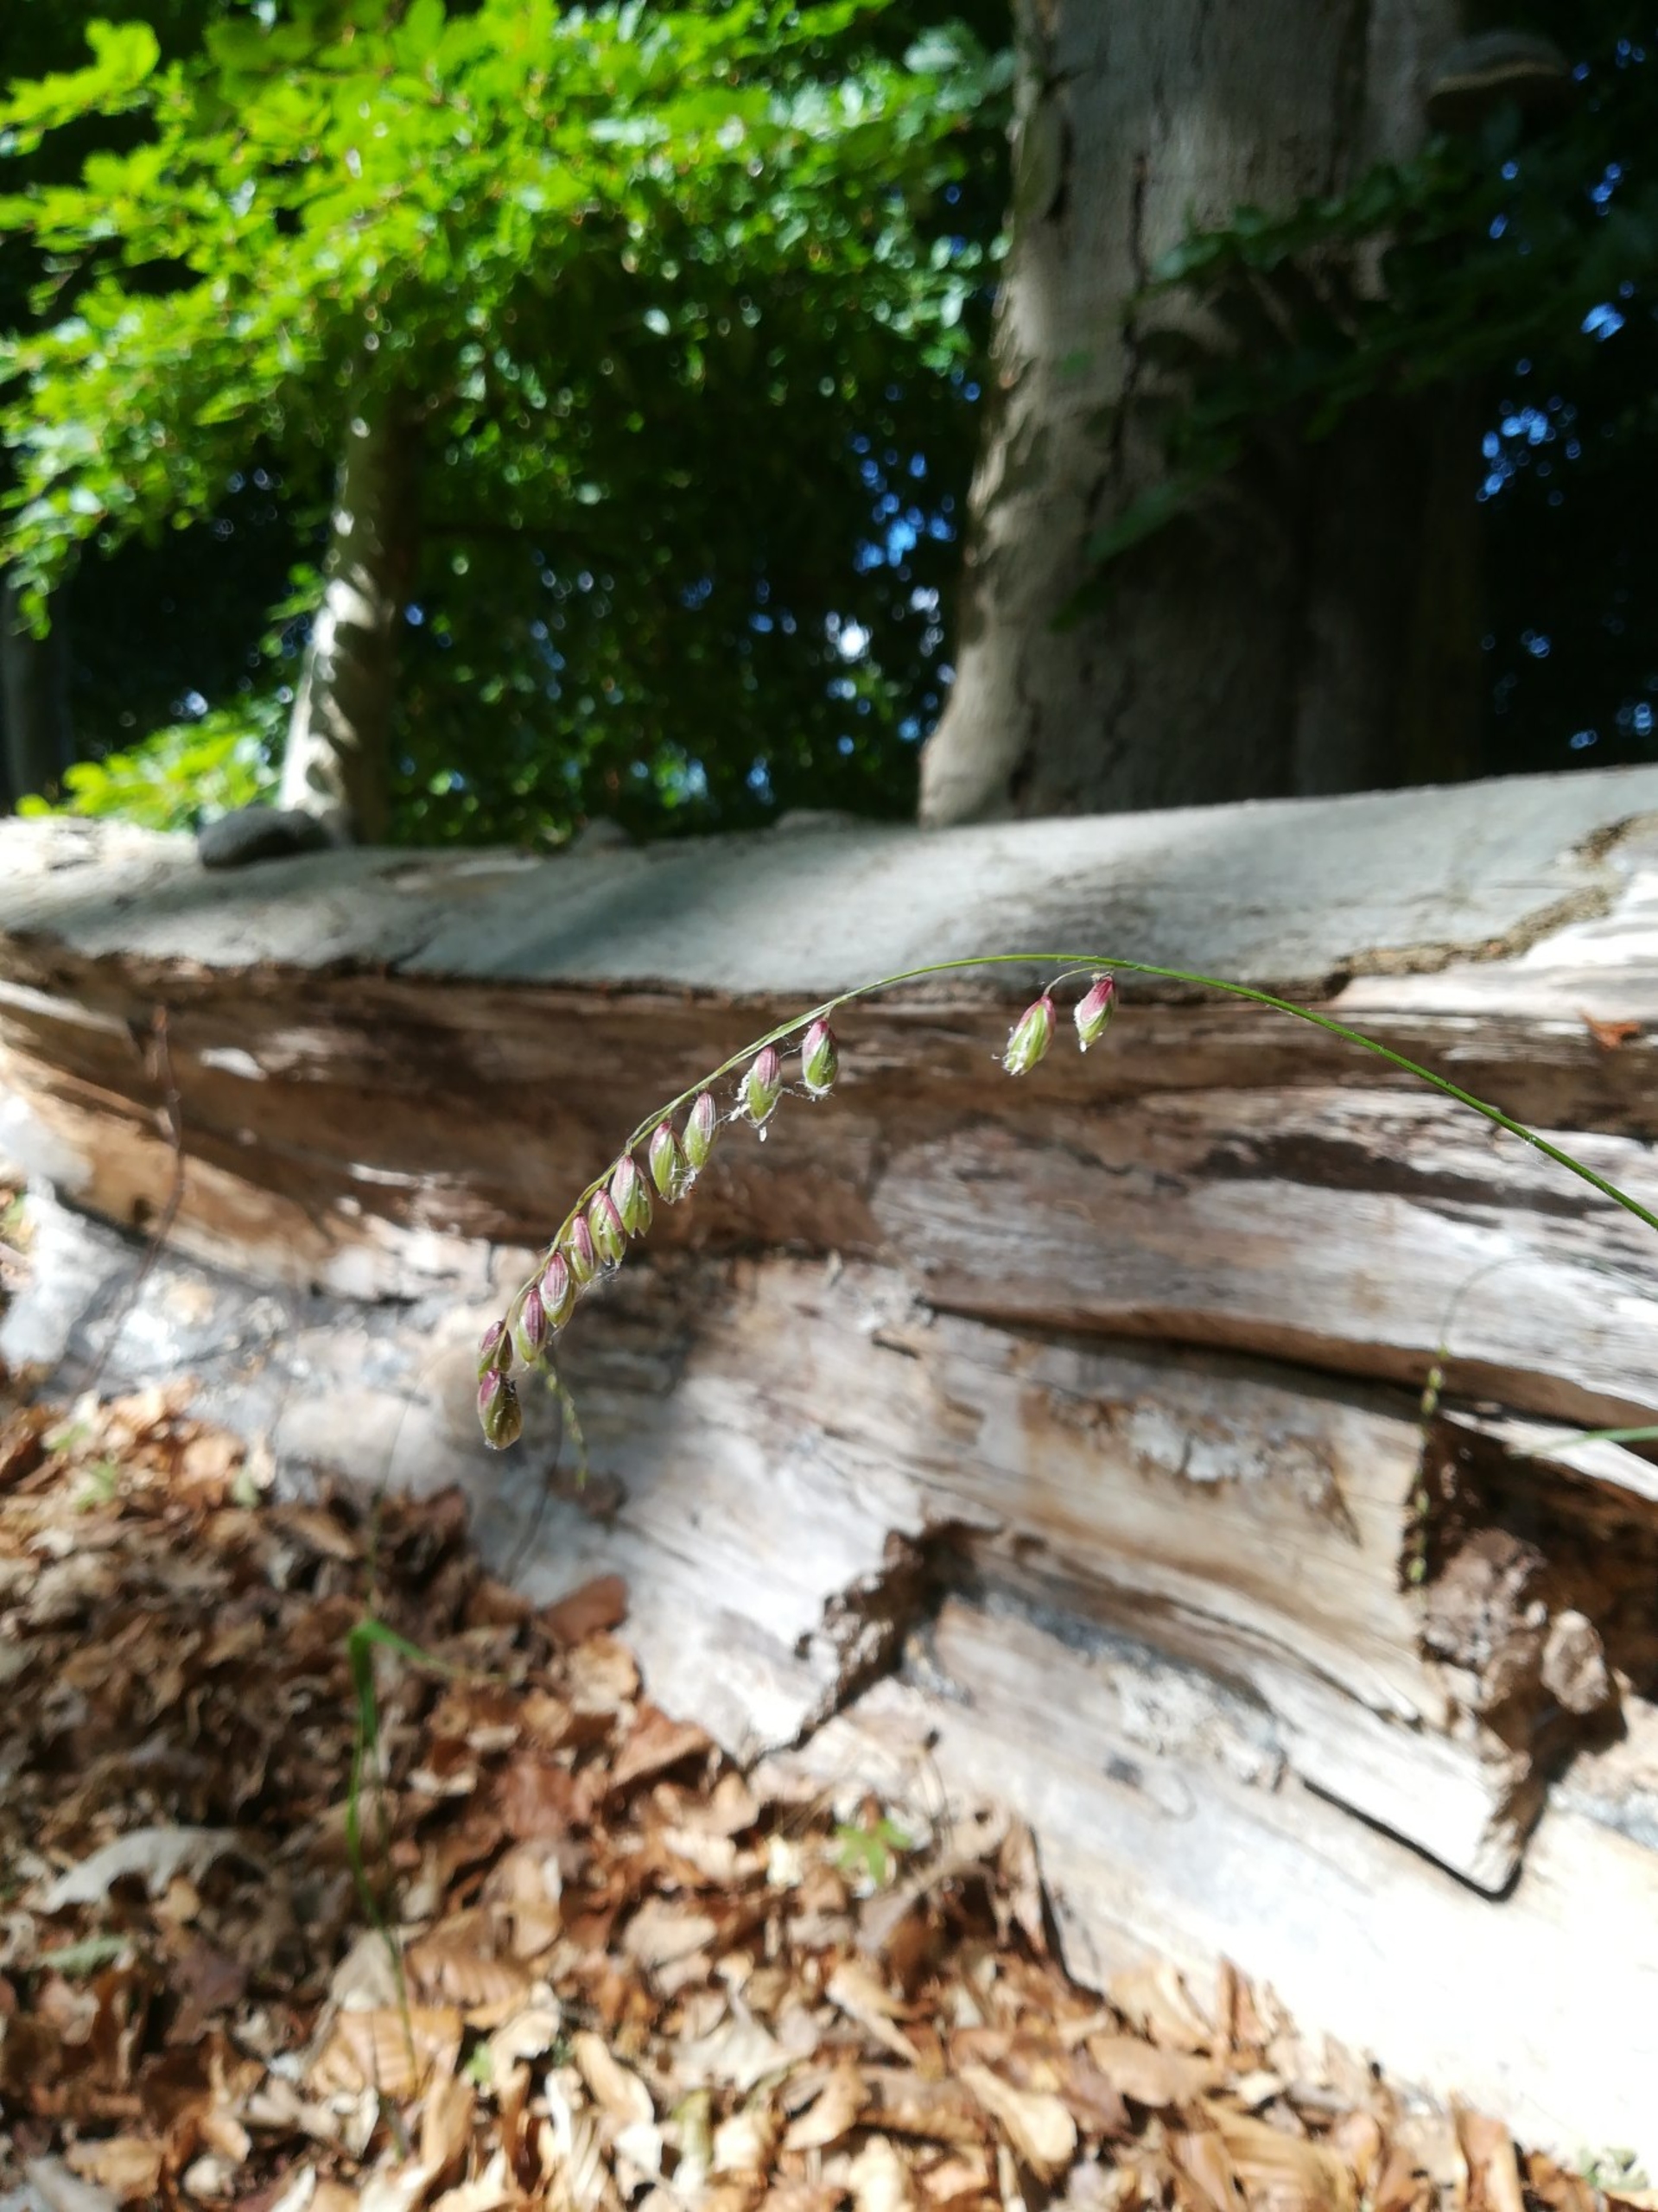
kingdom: Plantae
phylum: Tracheophyta
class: Liliopsida
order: Poales
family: Poaceae
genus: Melica
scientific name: Melica nutans
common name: Nikkende flitteraks
